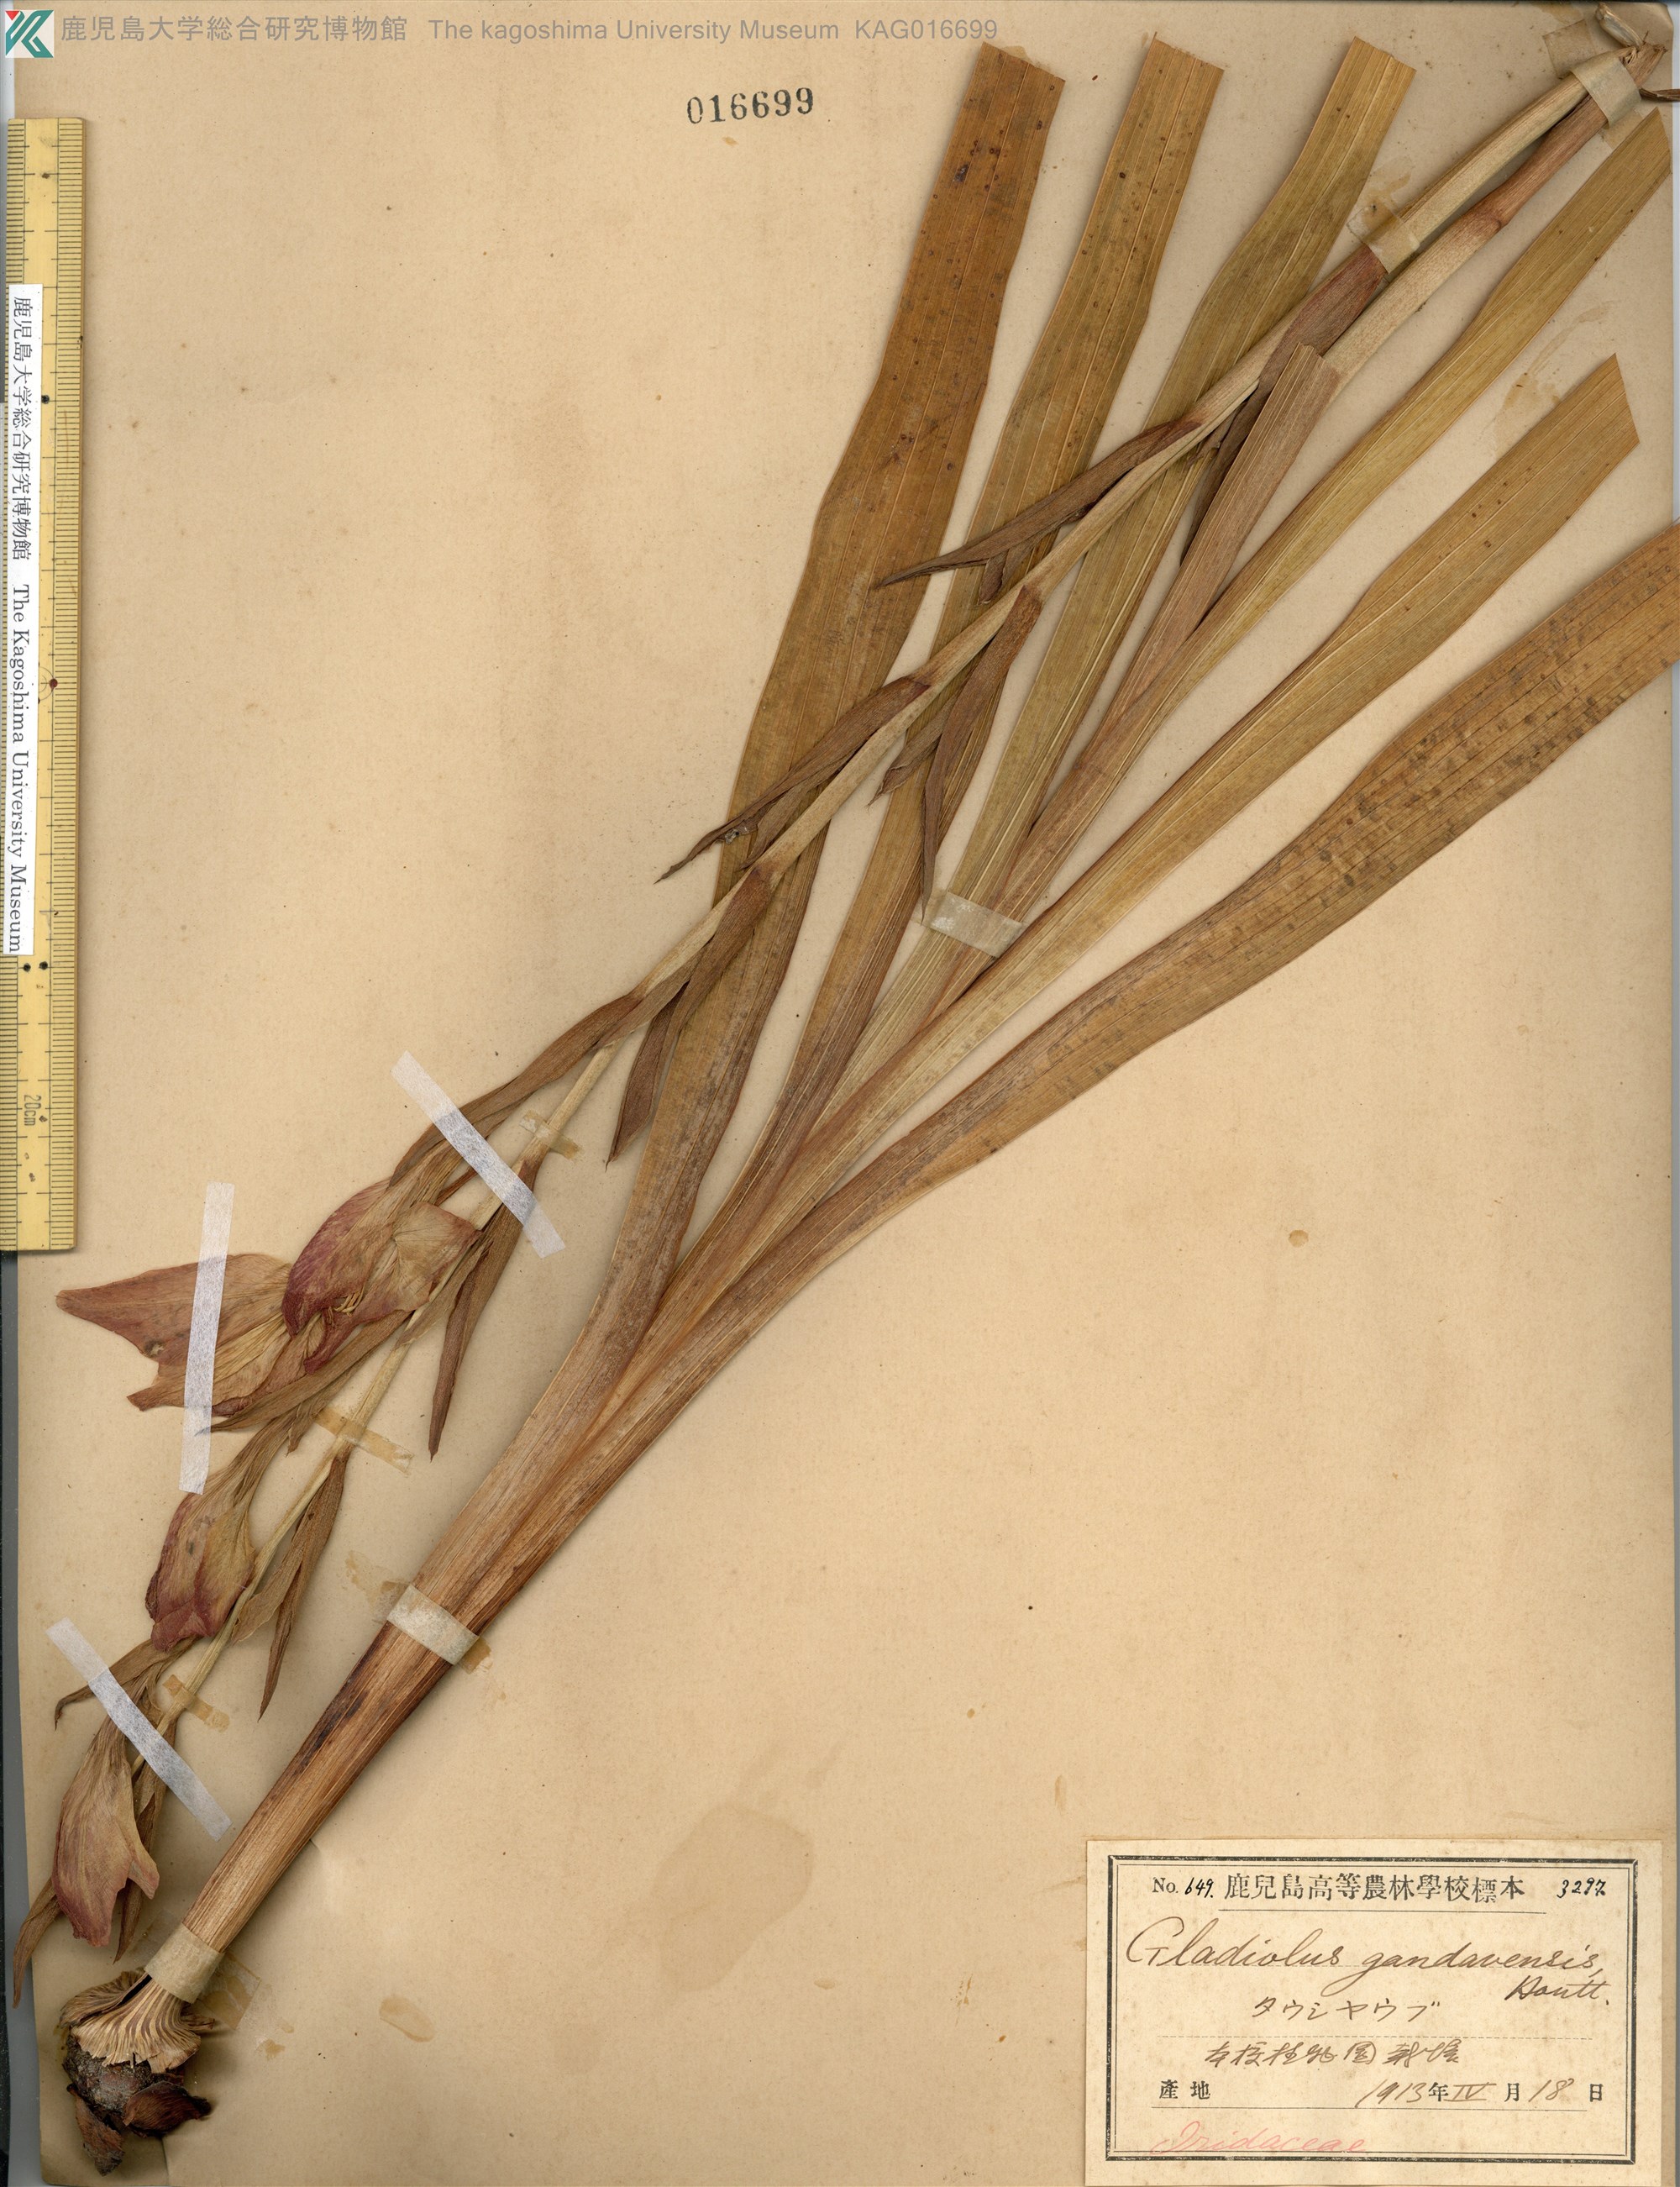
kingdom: Plantae
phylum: Tracheophyta
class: Liliopsida
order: Asparagales
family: Iridaceae
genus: Gladiolus
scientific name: Gladiolus colvillei
